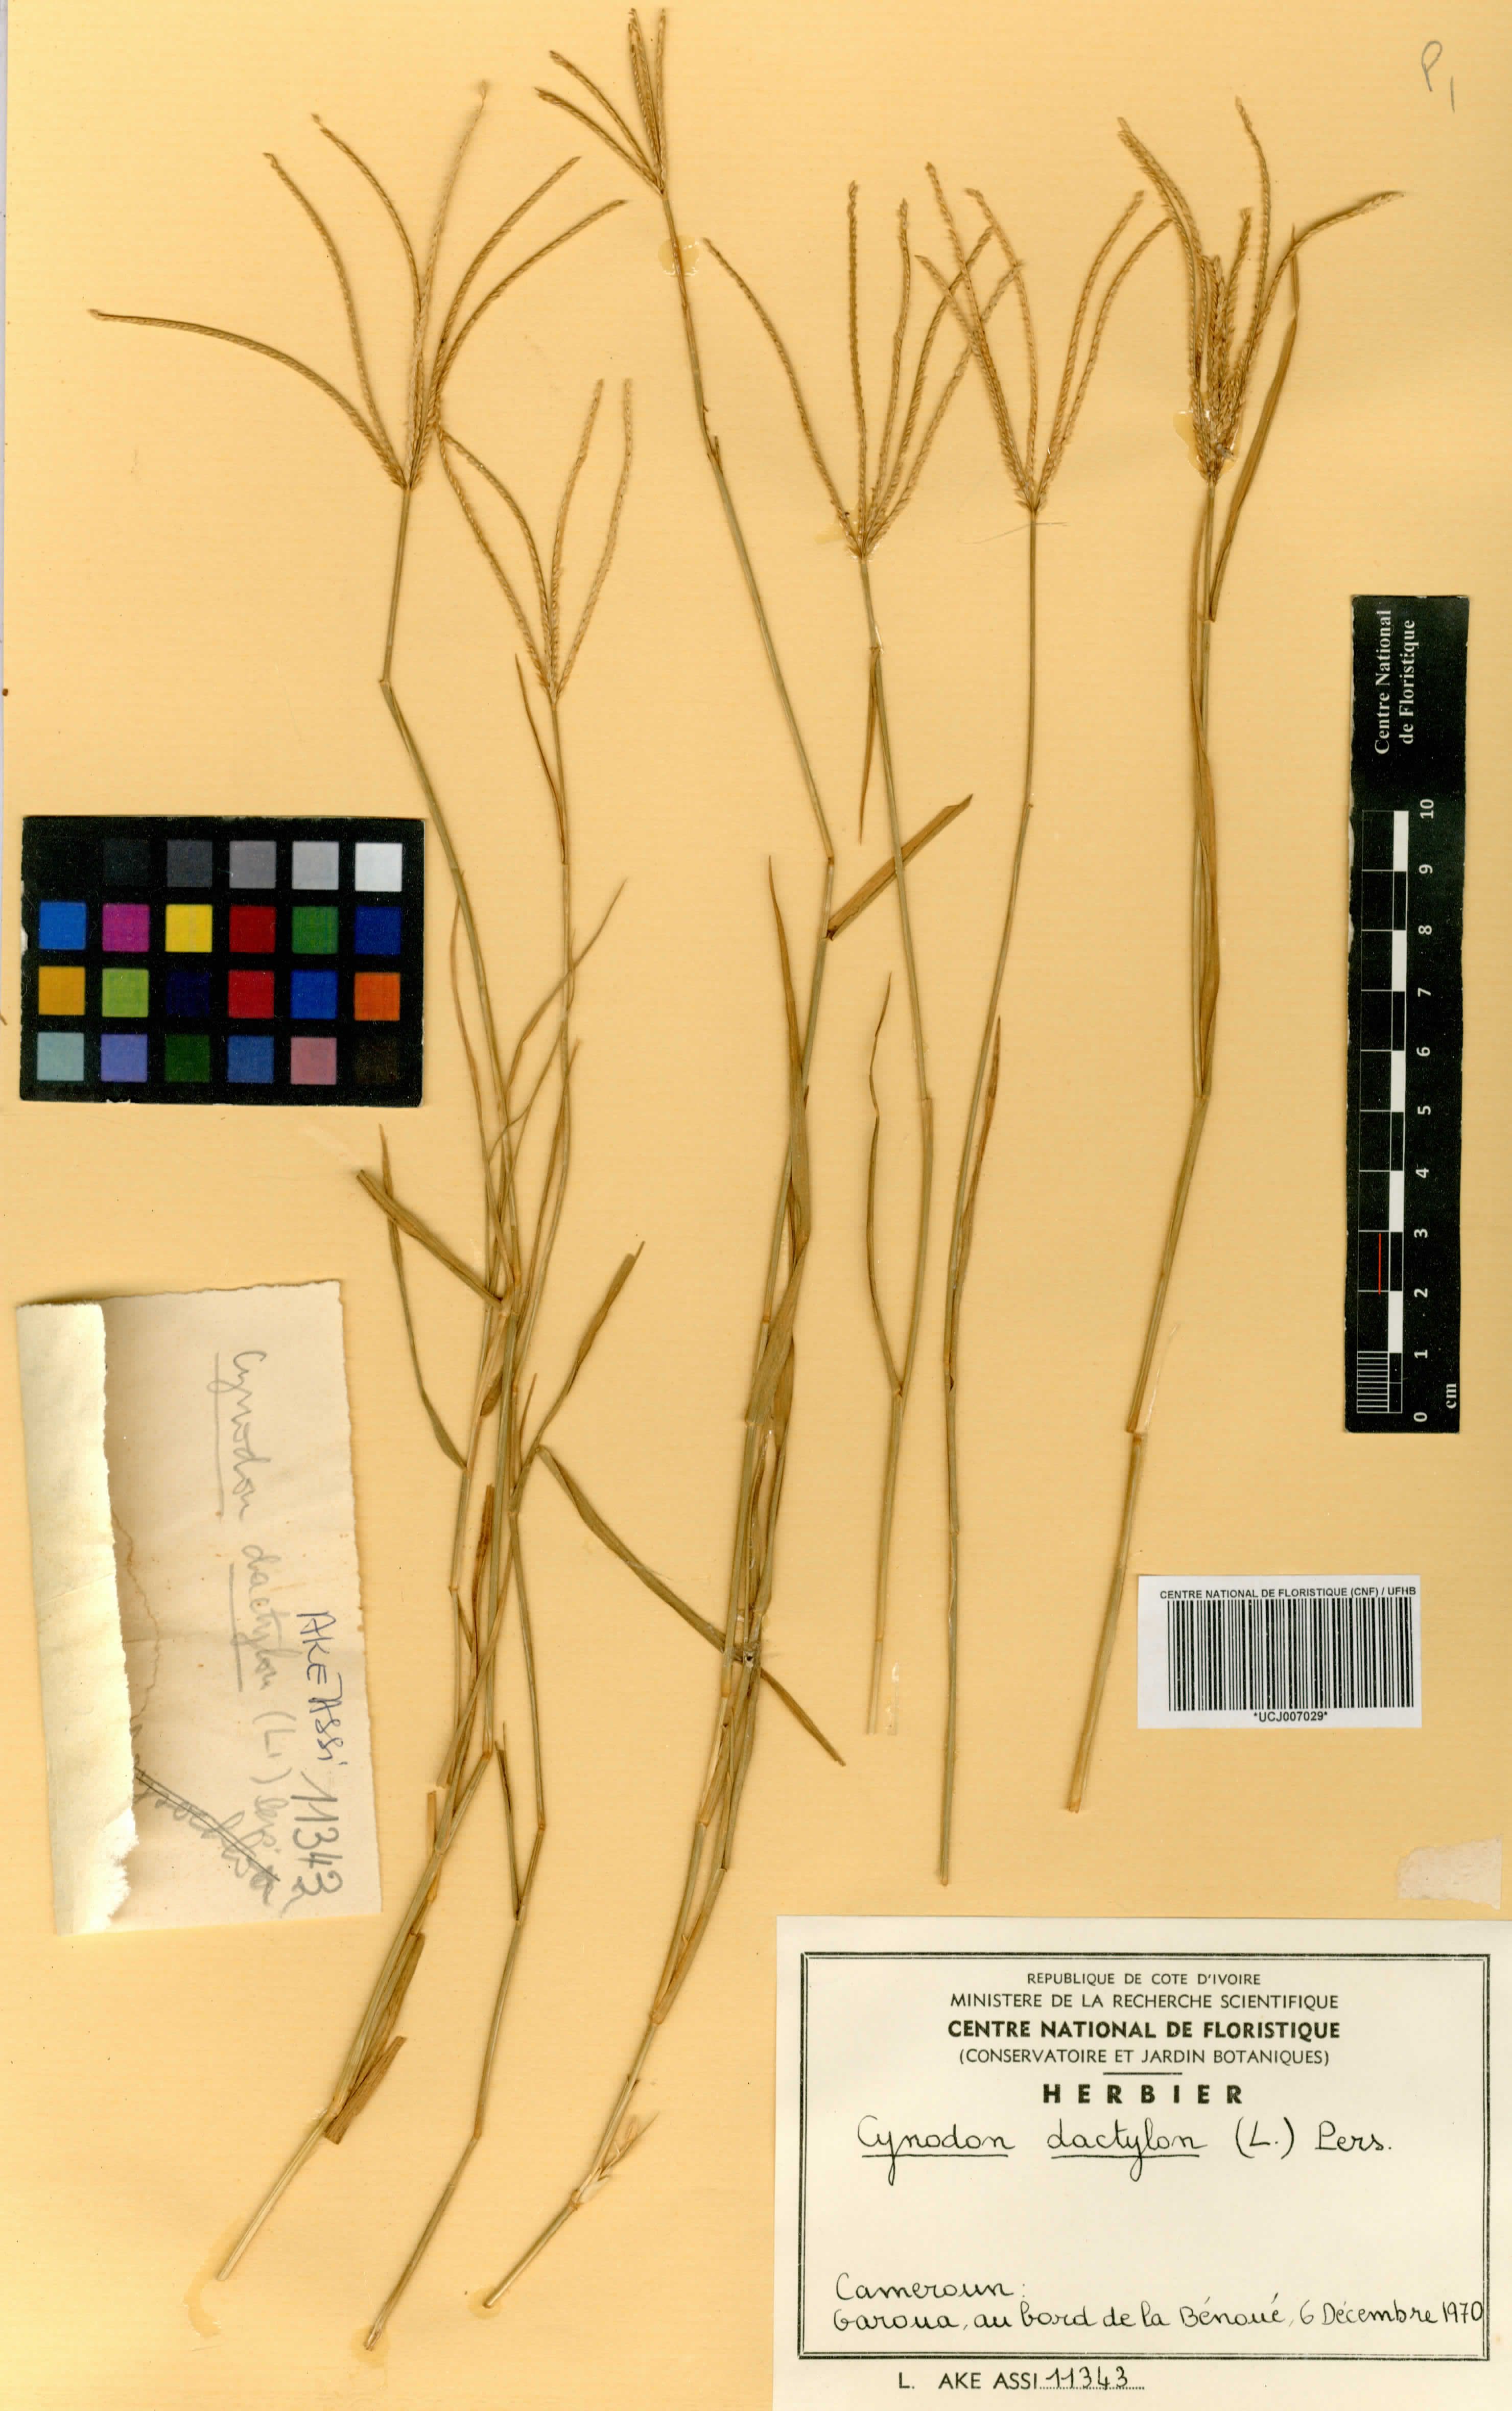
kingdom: Plantae
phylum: Tracheophyta
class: Liliopsida
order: Poales
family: Poaceae
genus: Cynodon
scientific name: Cynodon dactylon
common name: Bermuda grass
